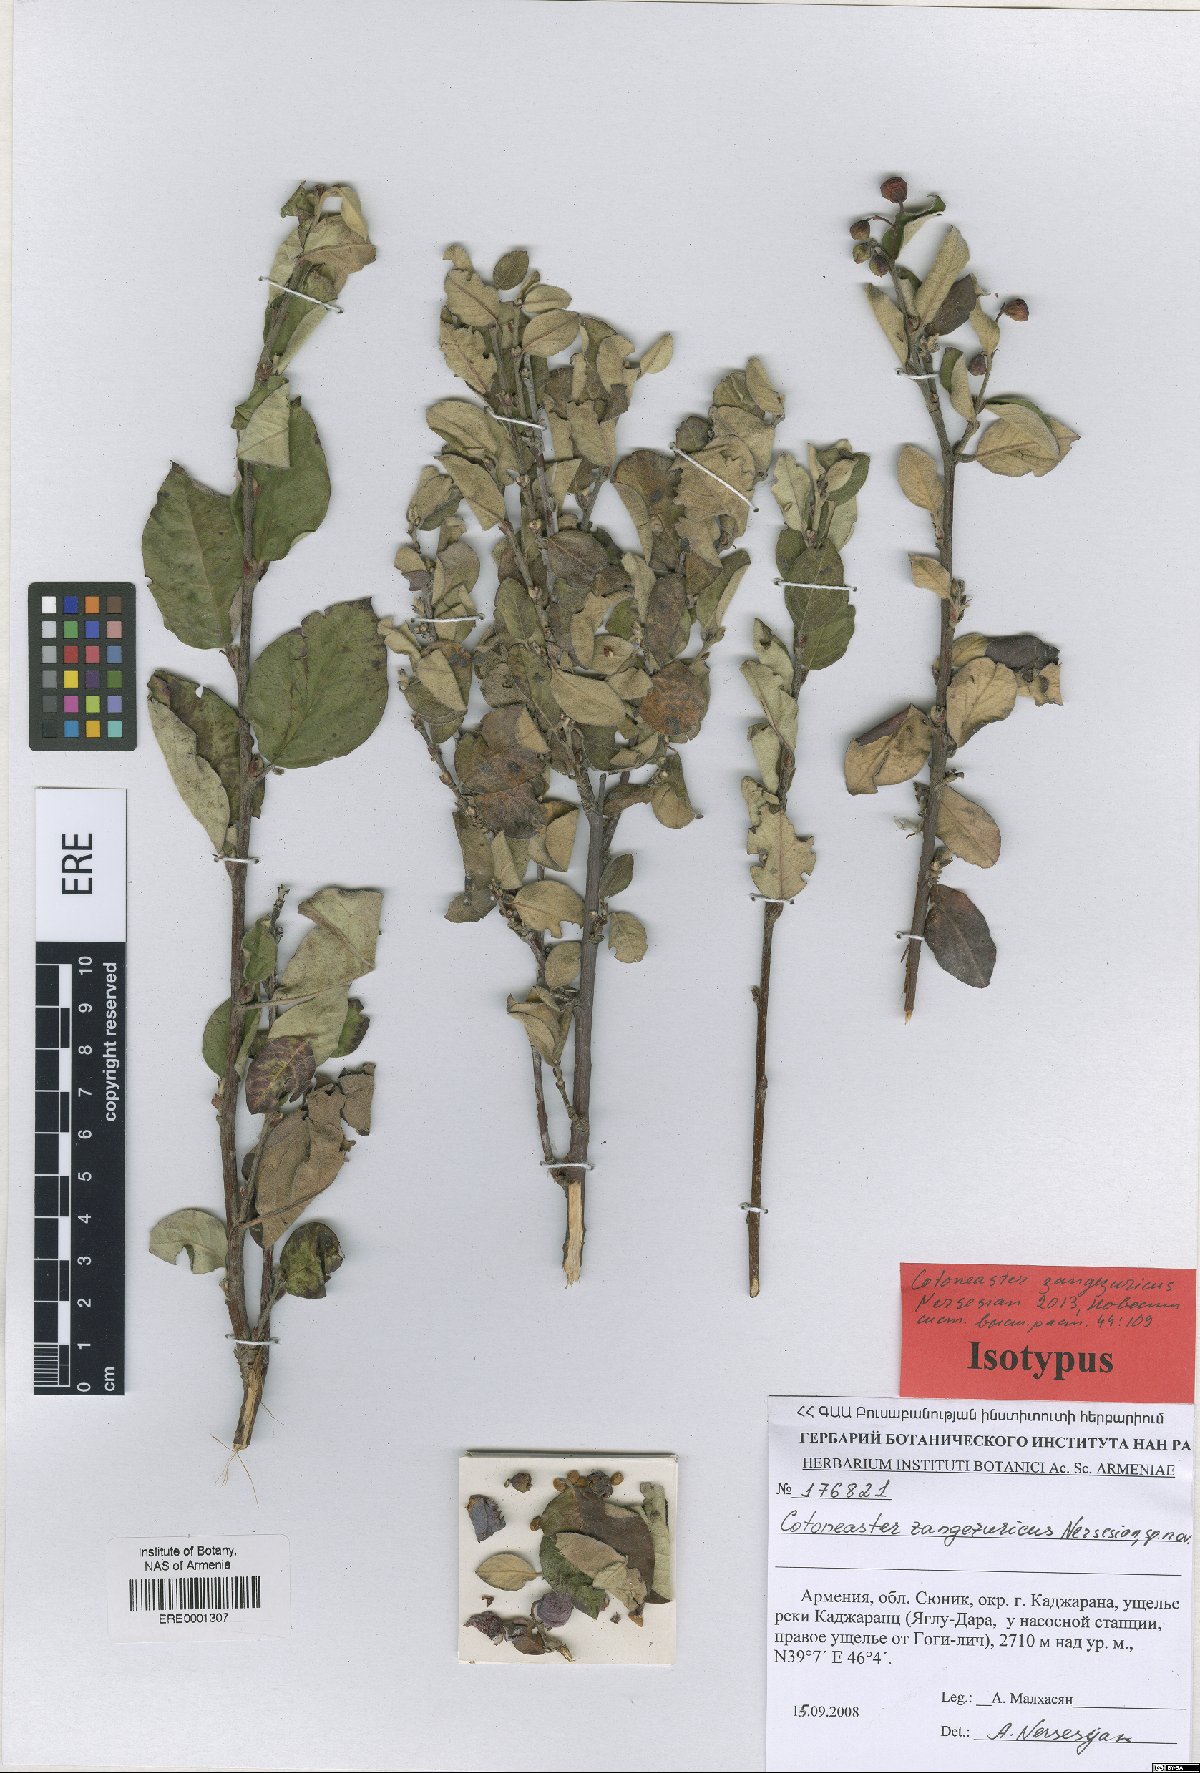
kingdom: Plantae
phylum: Tracheophyta
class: Magnoliopsida
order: Rosales
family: Rosaceae
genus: Cotoneaster
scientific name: Cotoneaster zangezuricus
